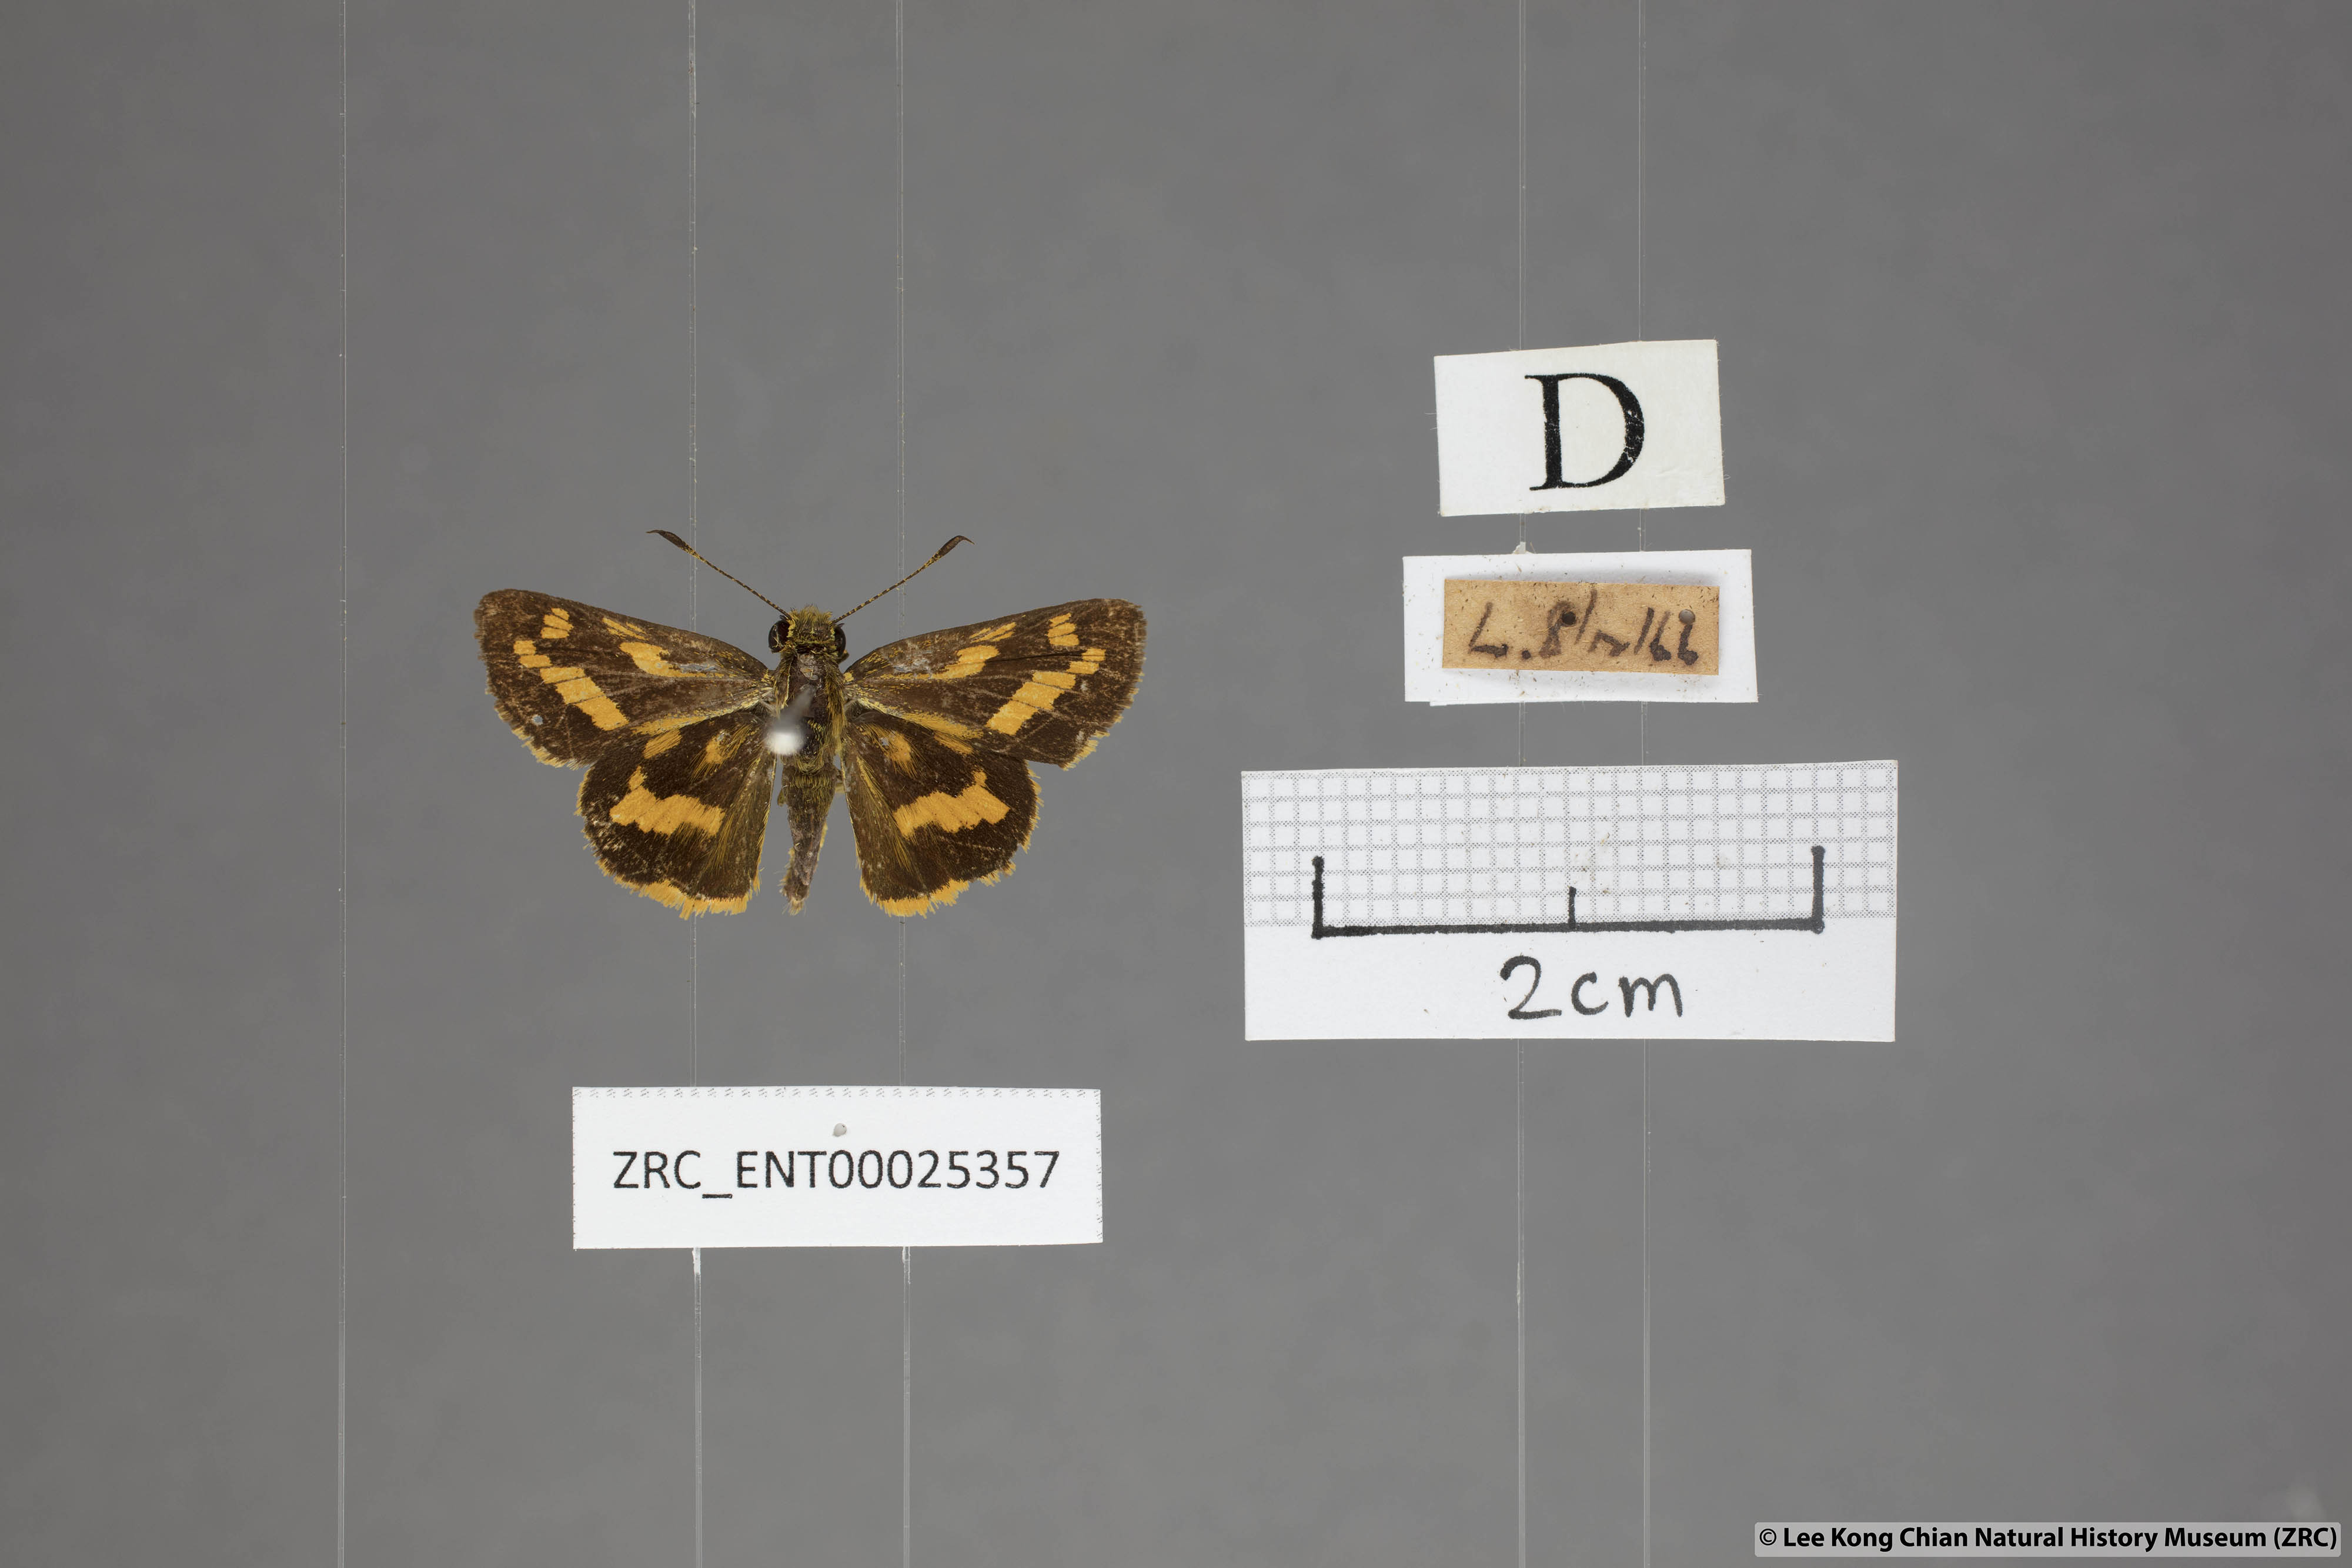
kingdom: Animalia
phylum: Arthropoda
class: Insecta
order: Lepidoptera
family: Hesperiidae
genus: Potanthus
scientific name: Potanthus confucius
